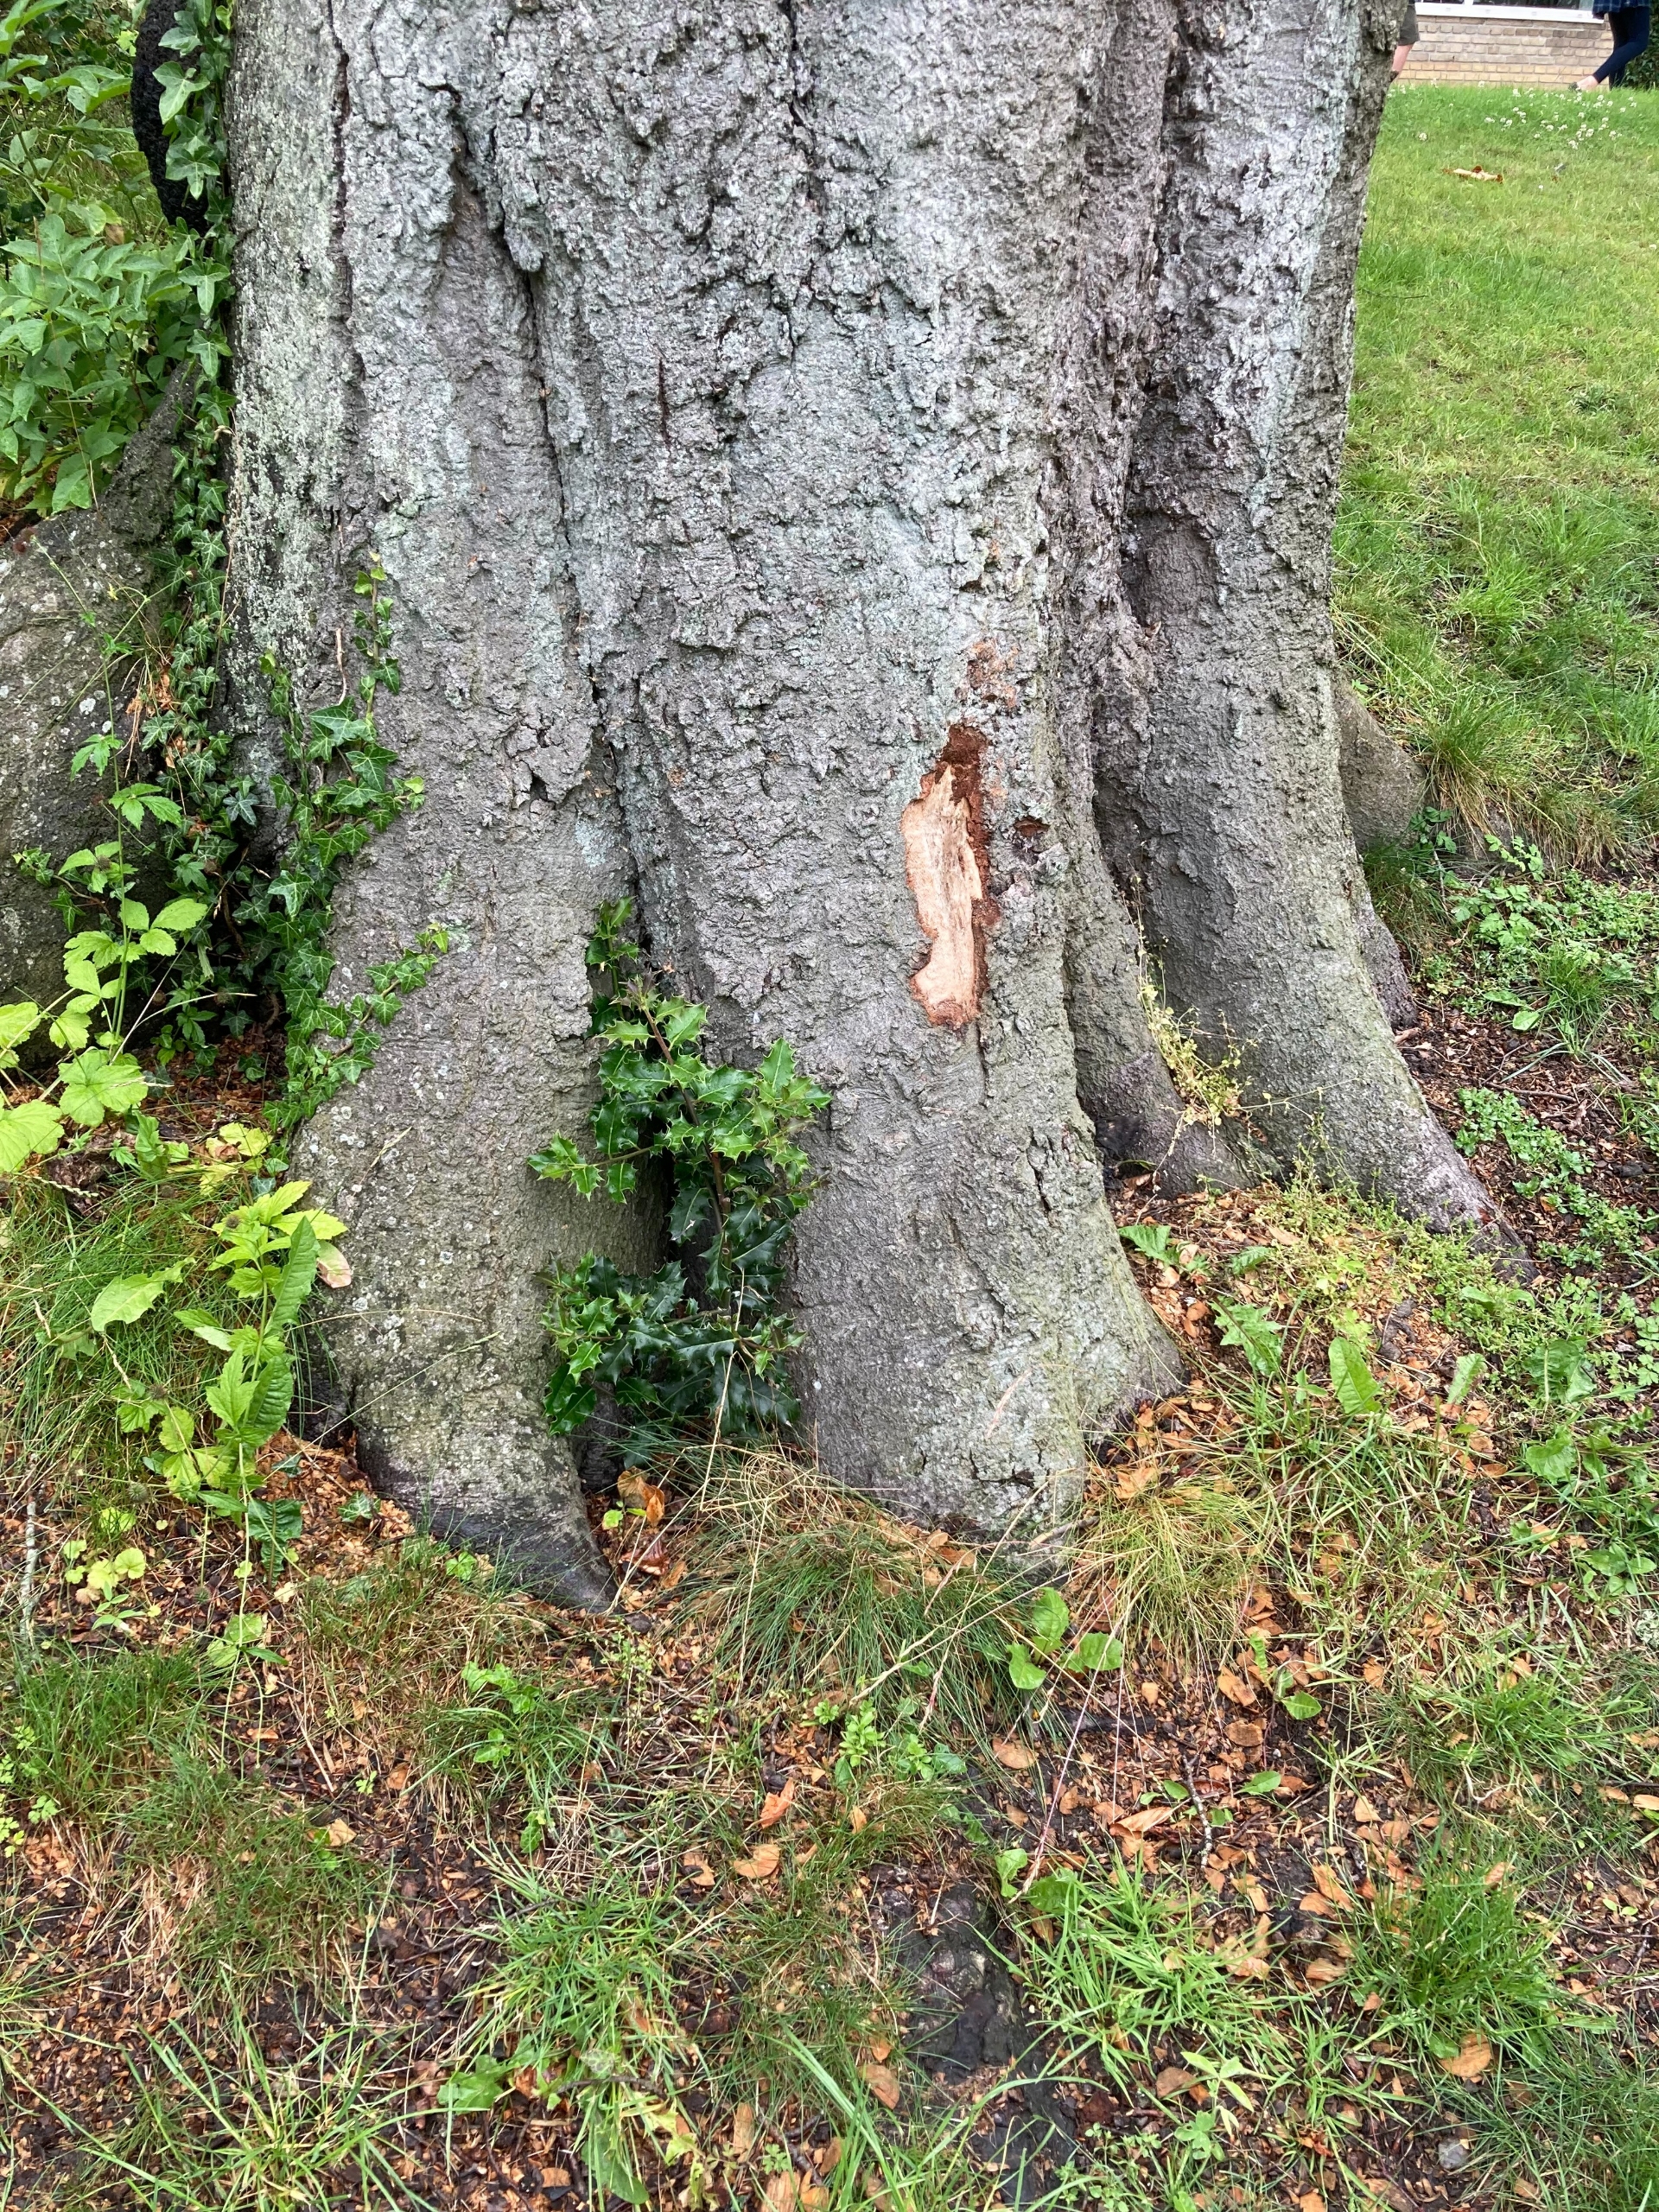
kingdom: Plantae
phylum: Tracheophyta
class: Magnoliopsida
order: Aquifoliales
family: Aquifoliaceae
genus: Ilex
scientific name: Ilex aquifolium
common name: Kristtorn
